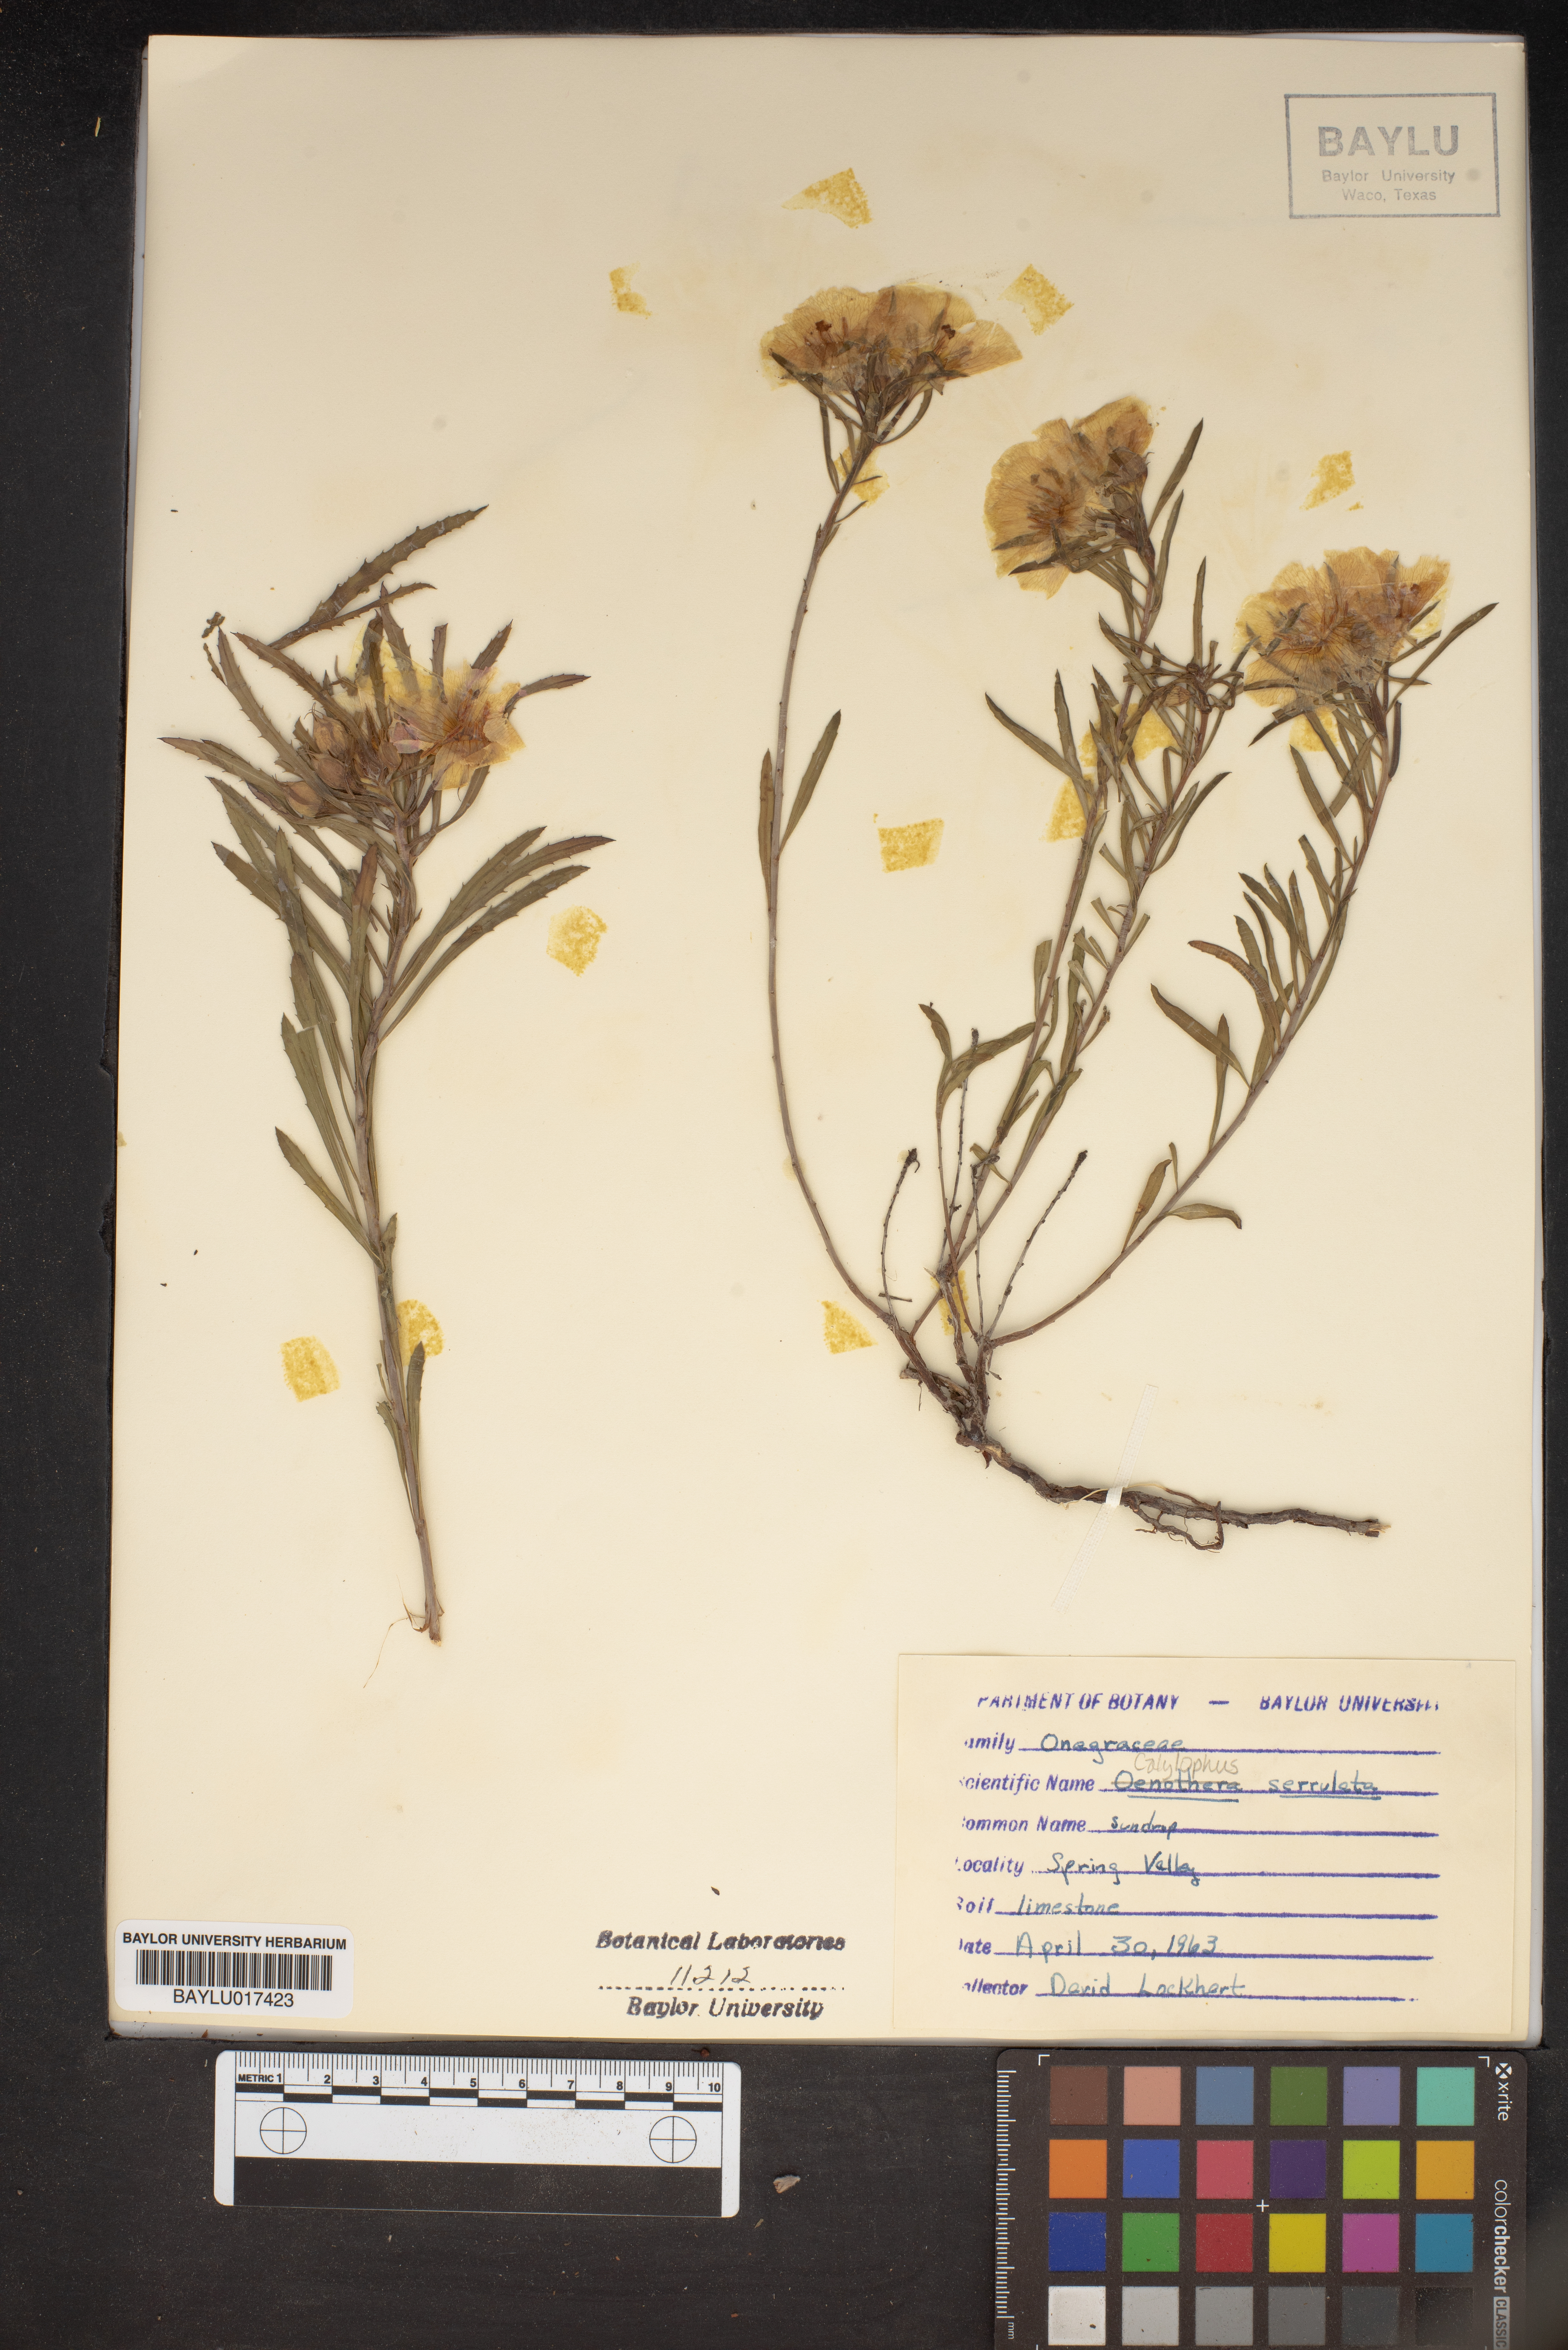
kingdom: Plantae
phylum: Tracheophyta
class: Magnoliopsida
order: Myrtales
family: Onagraceae
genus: Oenothera
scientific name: Oenothera serrulata
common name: Half-shrub calylophus
